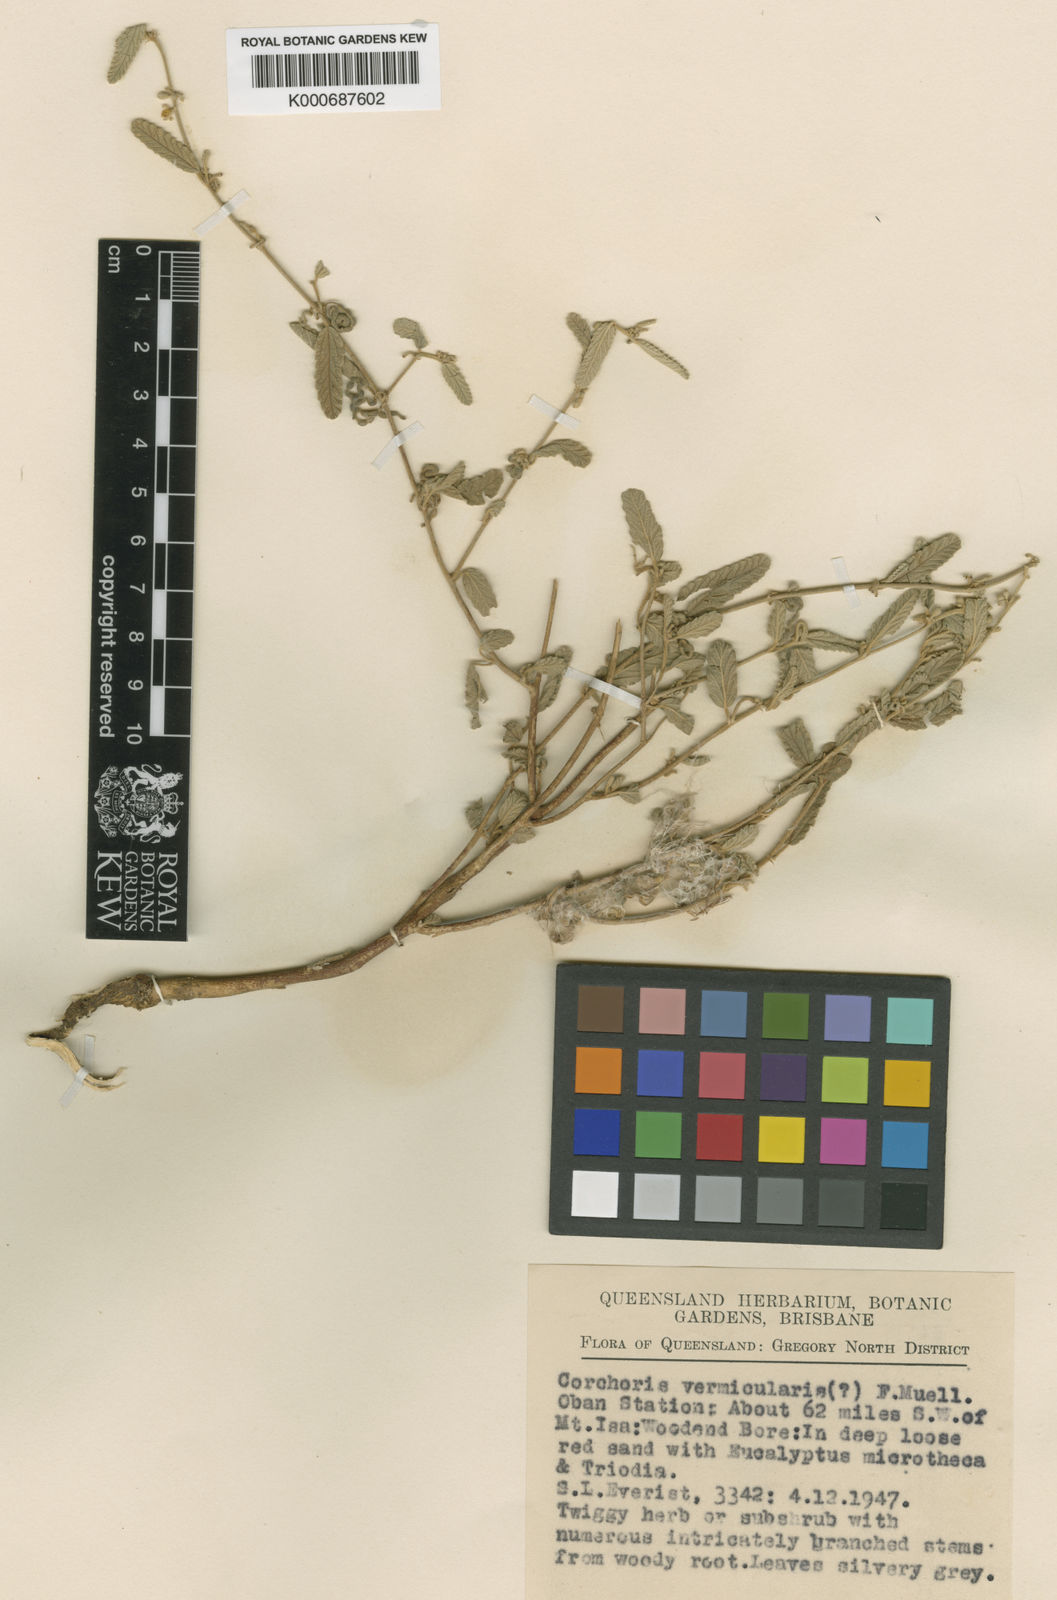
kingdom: Plantae
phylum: Tracheophyta
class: Magnoliopsida
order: Malvales
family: Malvaceae
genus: Corchorus
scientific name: Corchorus sidoides
